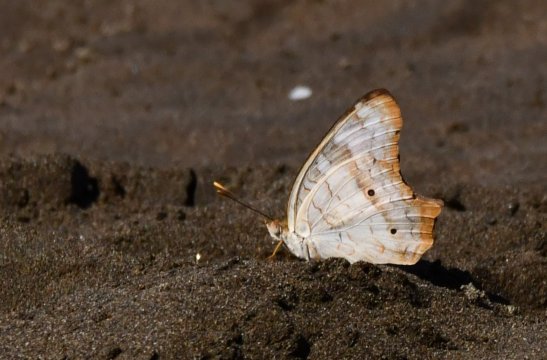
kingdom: Animalia
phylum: Arthropoda
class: Insecta
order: Lepidoptera
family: Nymphalidae
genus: Anartia
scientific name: Anartia jatrophae
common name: White Peacock
